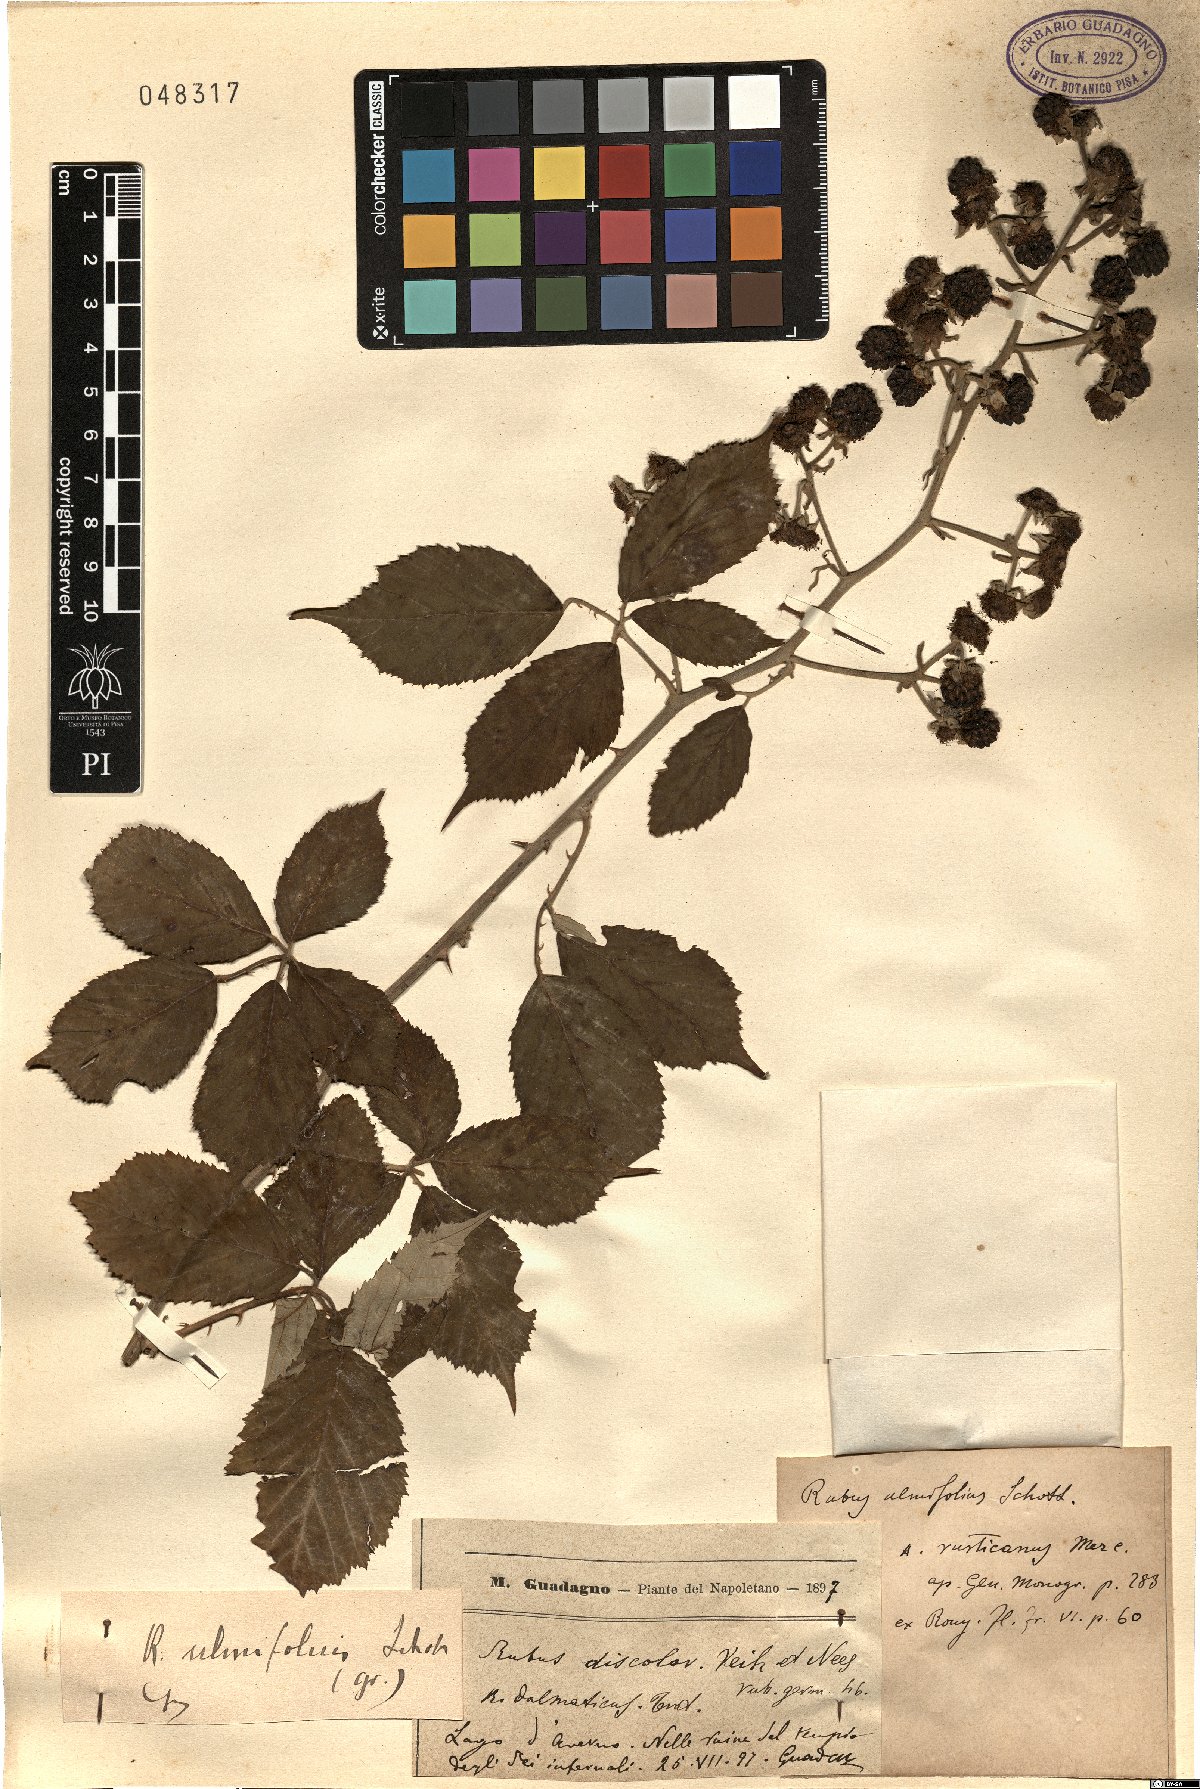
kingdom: Plantae
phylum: Tracheophyta
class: Magnoliopsida
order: Rosales
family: Rosaceae
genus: Rubus
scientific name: Rubus ulmifolius
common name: Elmleaf blackberry
